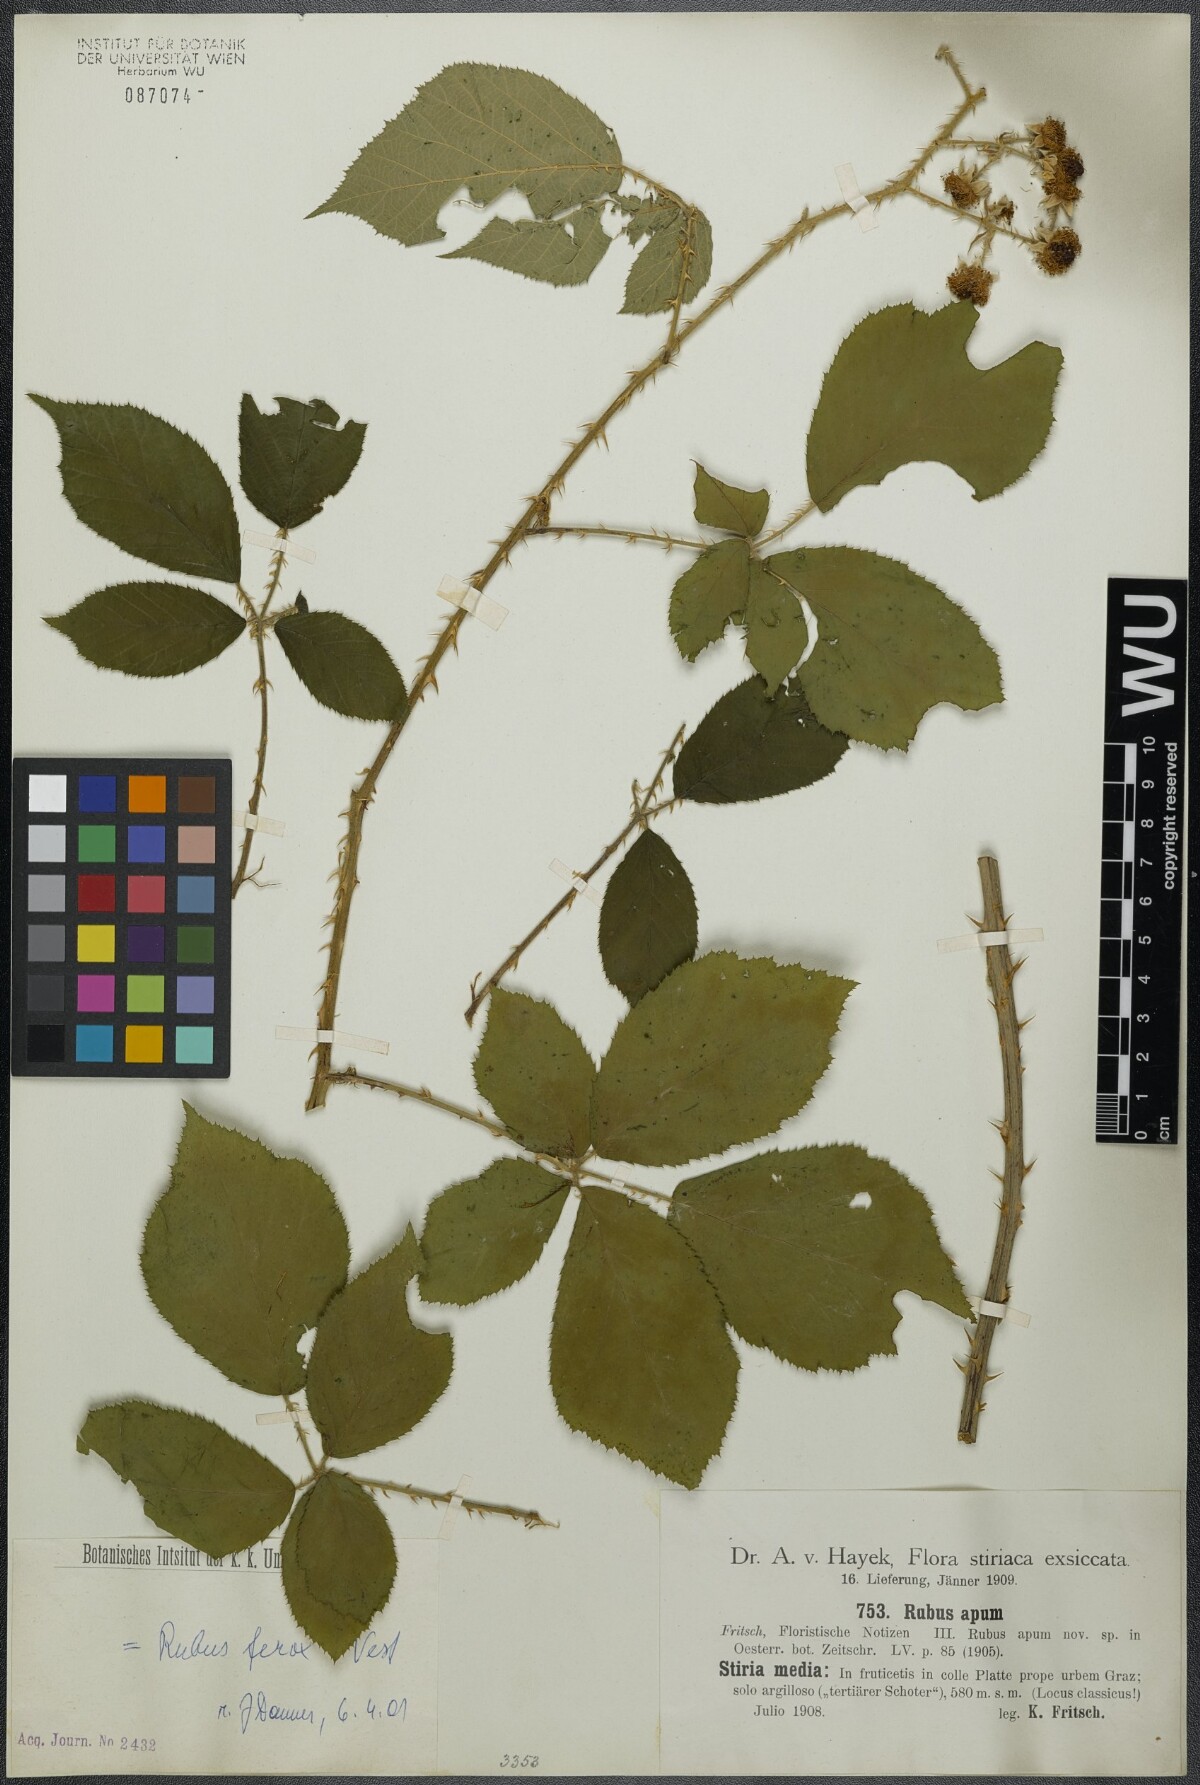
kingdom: Plantae
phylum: Tracheophyta
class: Magnoliopsida
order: Rosales
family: Rosaceae
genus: Rubus
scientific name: Rubus ferox
